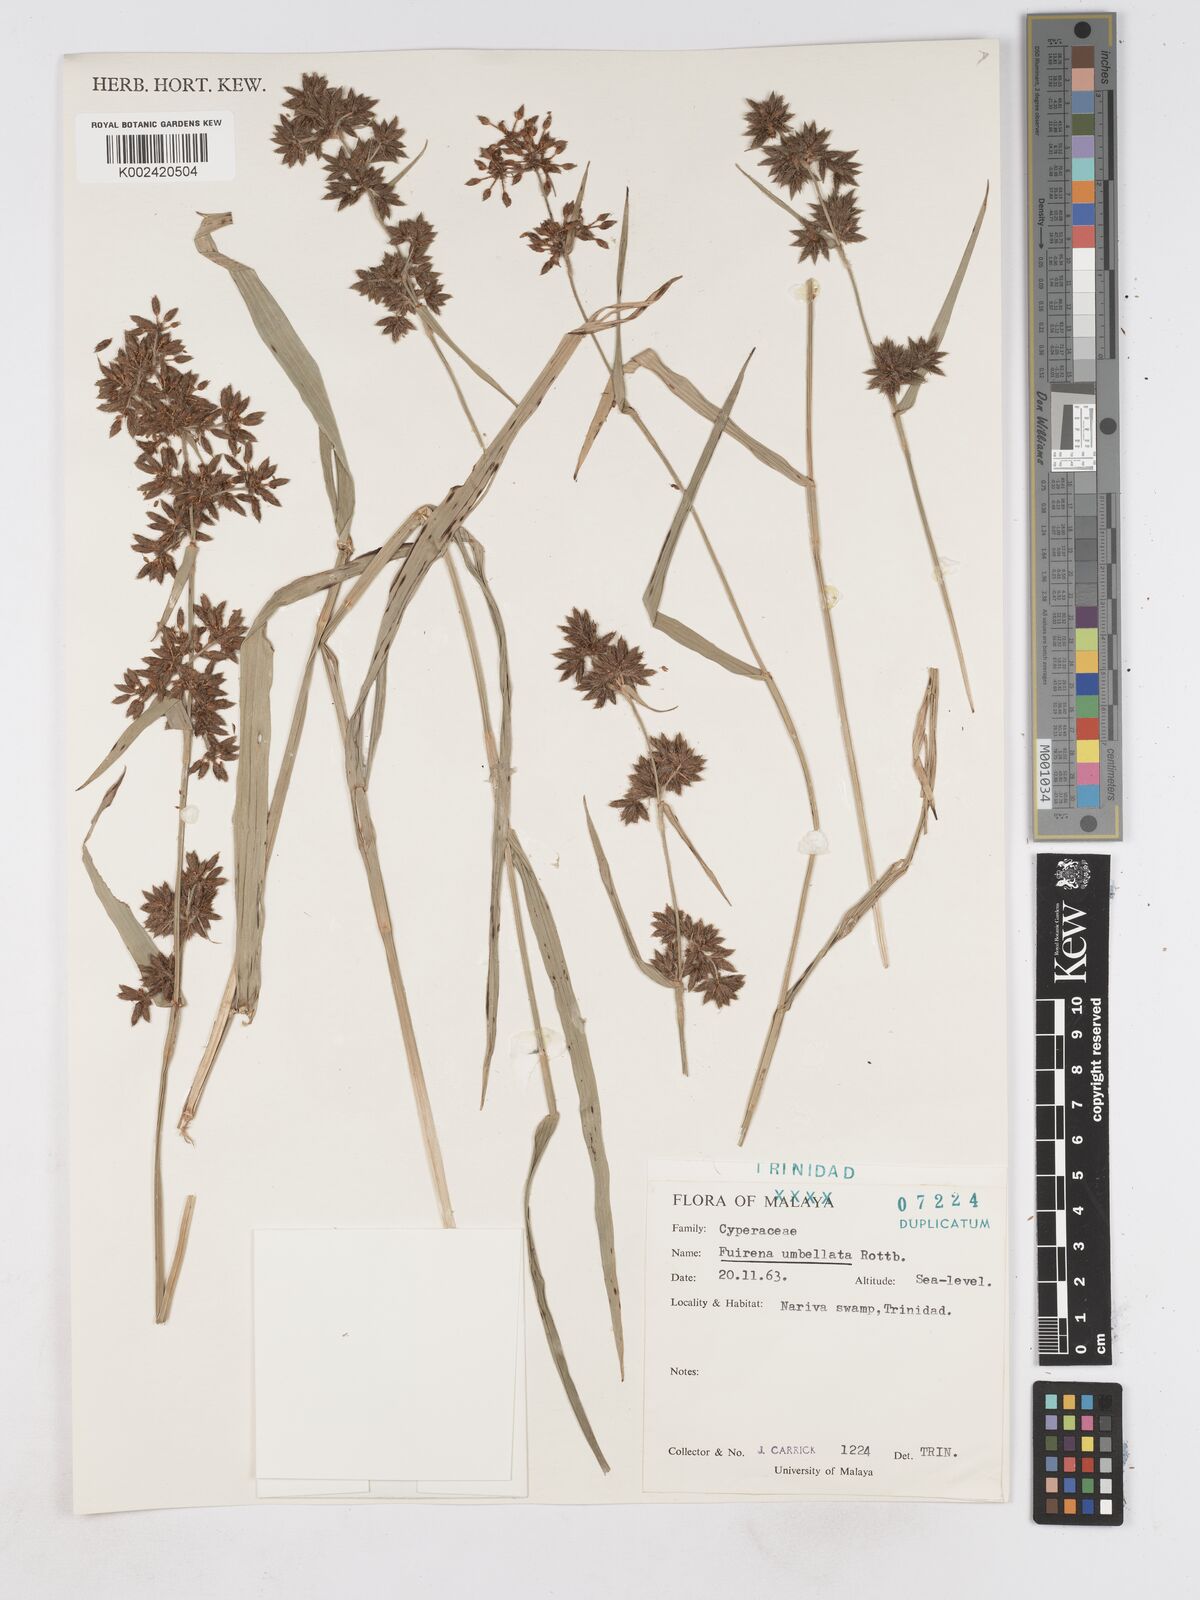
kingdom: Plantae
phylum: Tracheophyta
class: Liliopsida
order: Poales
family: Cyperaceae
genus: Fuirena
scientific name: Fuirena umbellata
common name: Yefen
